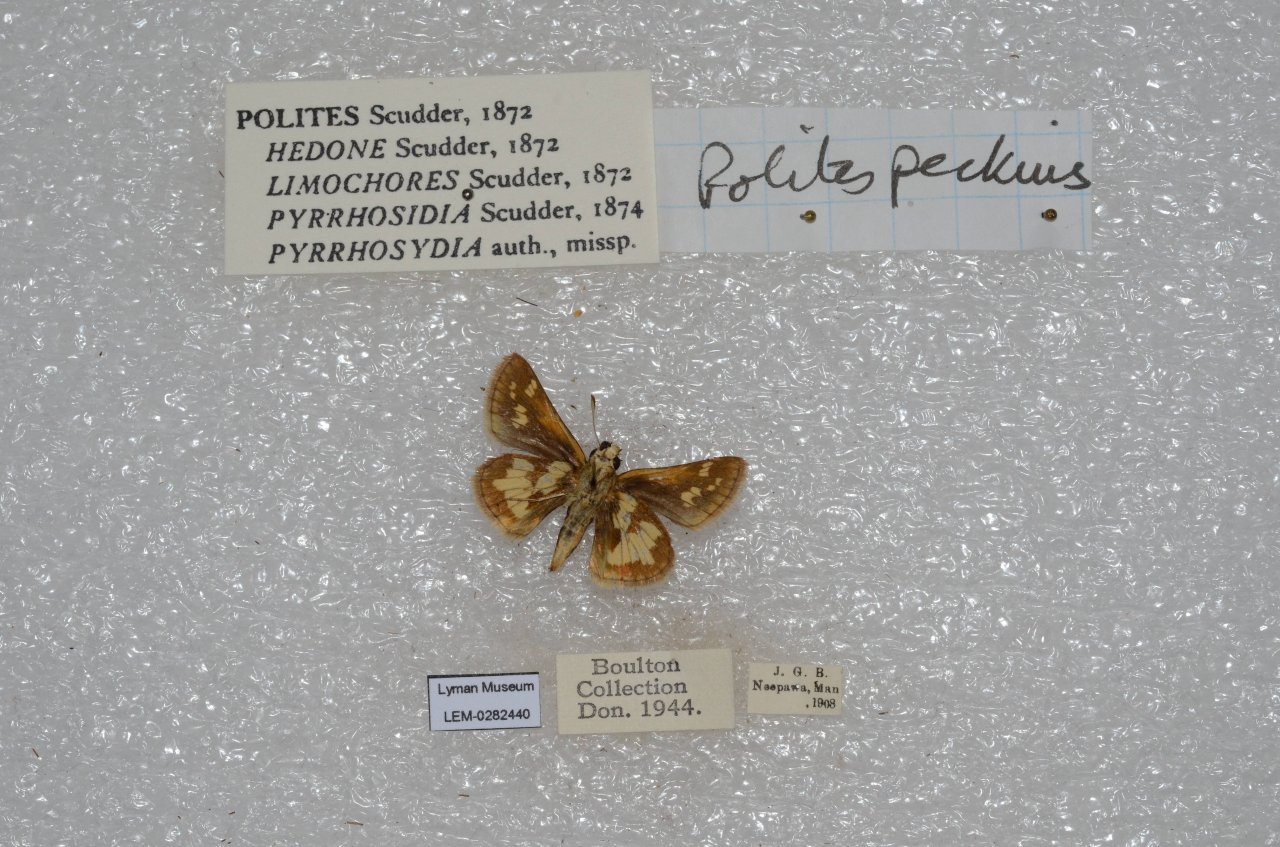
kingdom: Animalia
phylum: Arthropoda
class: Insecta
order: Lepidoptera
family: Hesperiidae
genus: Polites
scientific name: Polites coras
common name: Peck's Skipper
